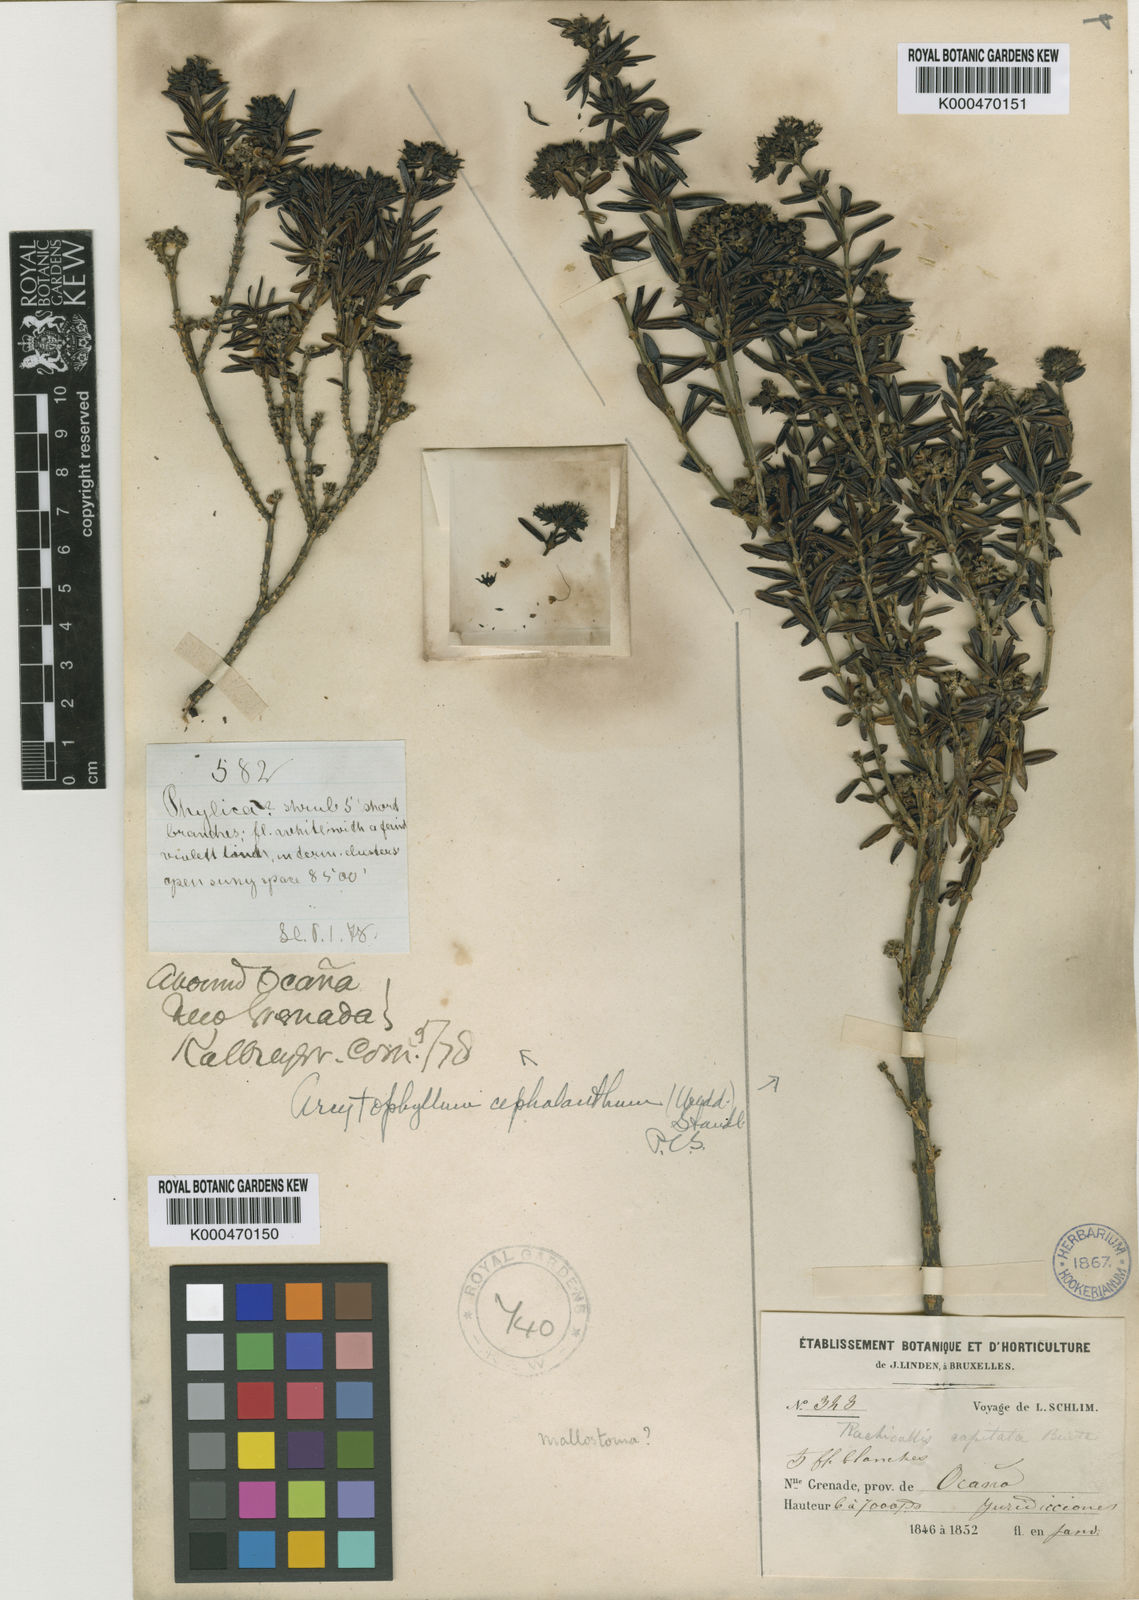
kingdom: Plantae
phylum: Tracheophyta
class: Magnoliopsida
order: Gentianales
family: Rubiaceae
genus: Arcytophyllum
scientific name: Arcytophyllum cachirense
